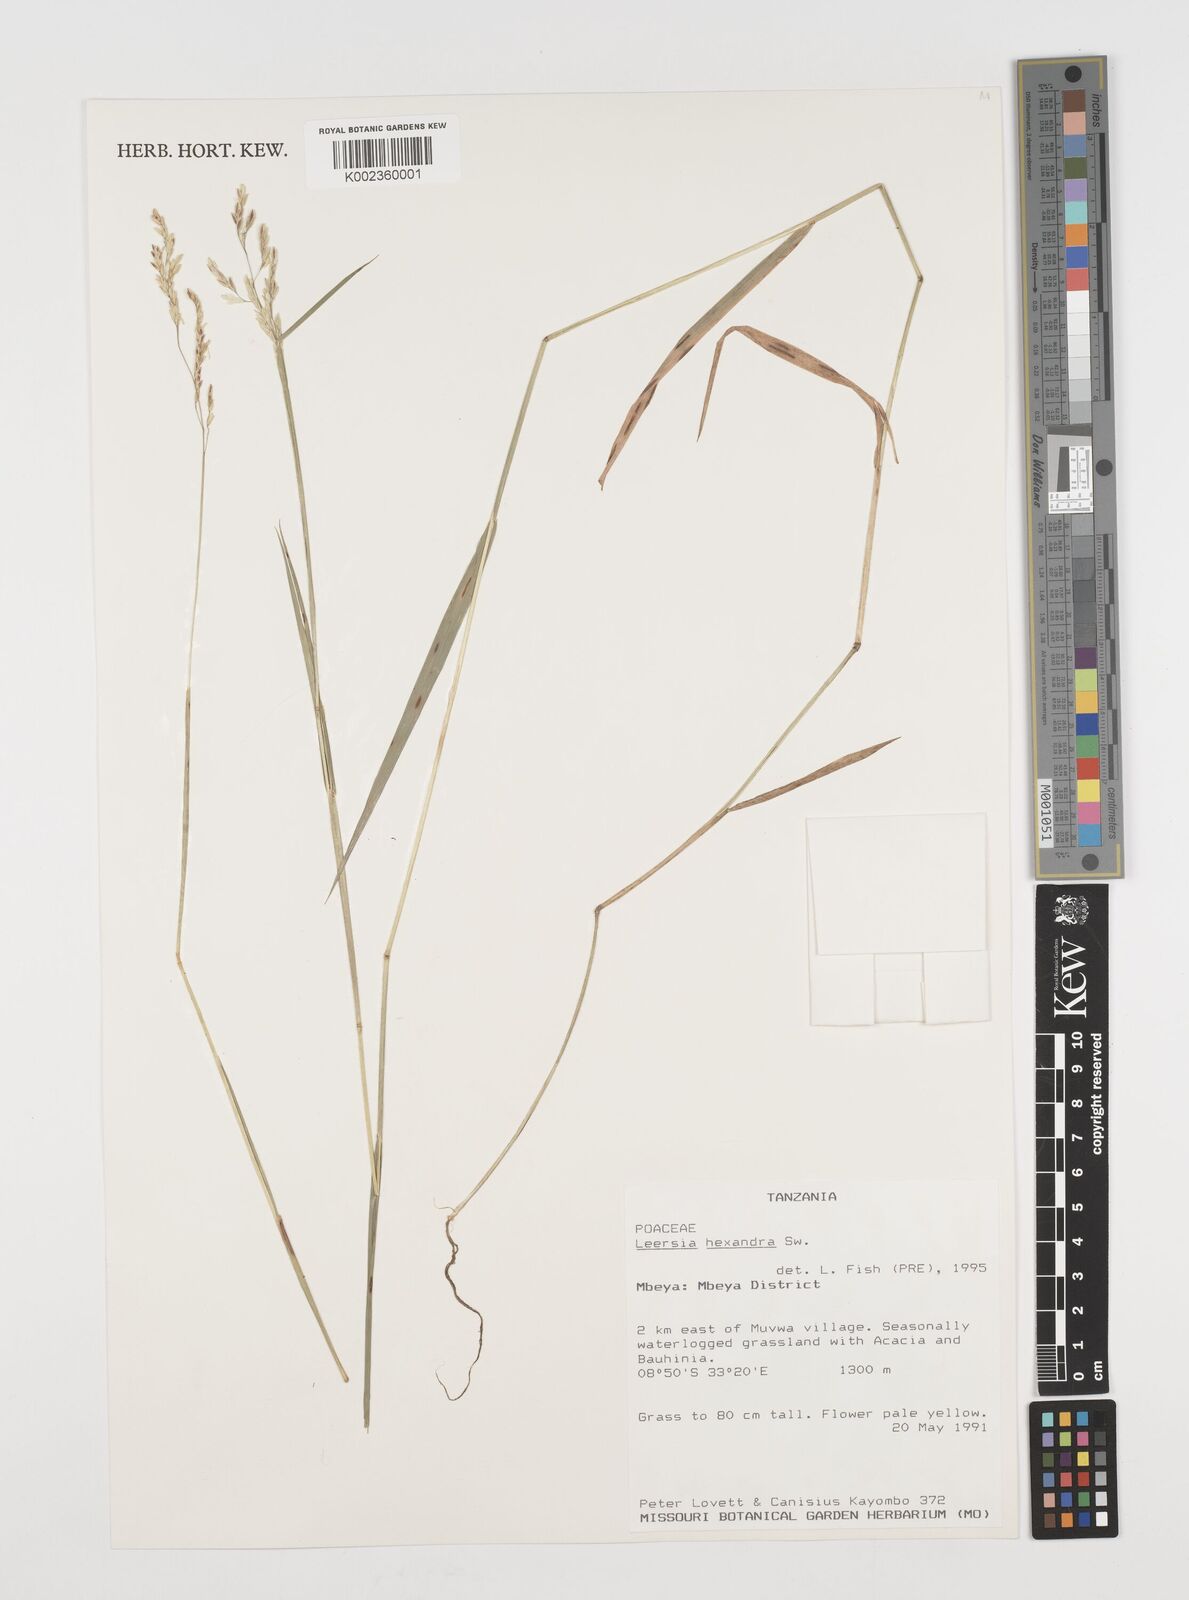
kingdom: Plantae
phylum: Tracheophyta
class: Liliopsida
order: Poales
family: Poaceae
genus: Leersia
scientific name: Leersia hexandra
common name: Southern cut grass
